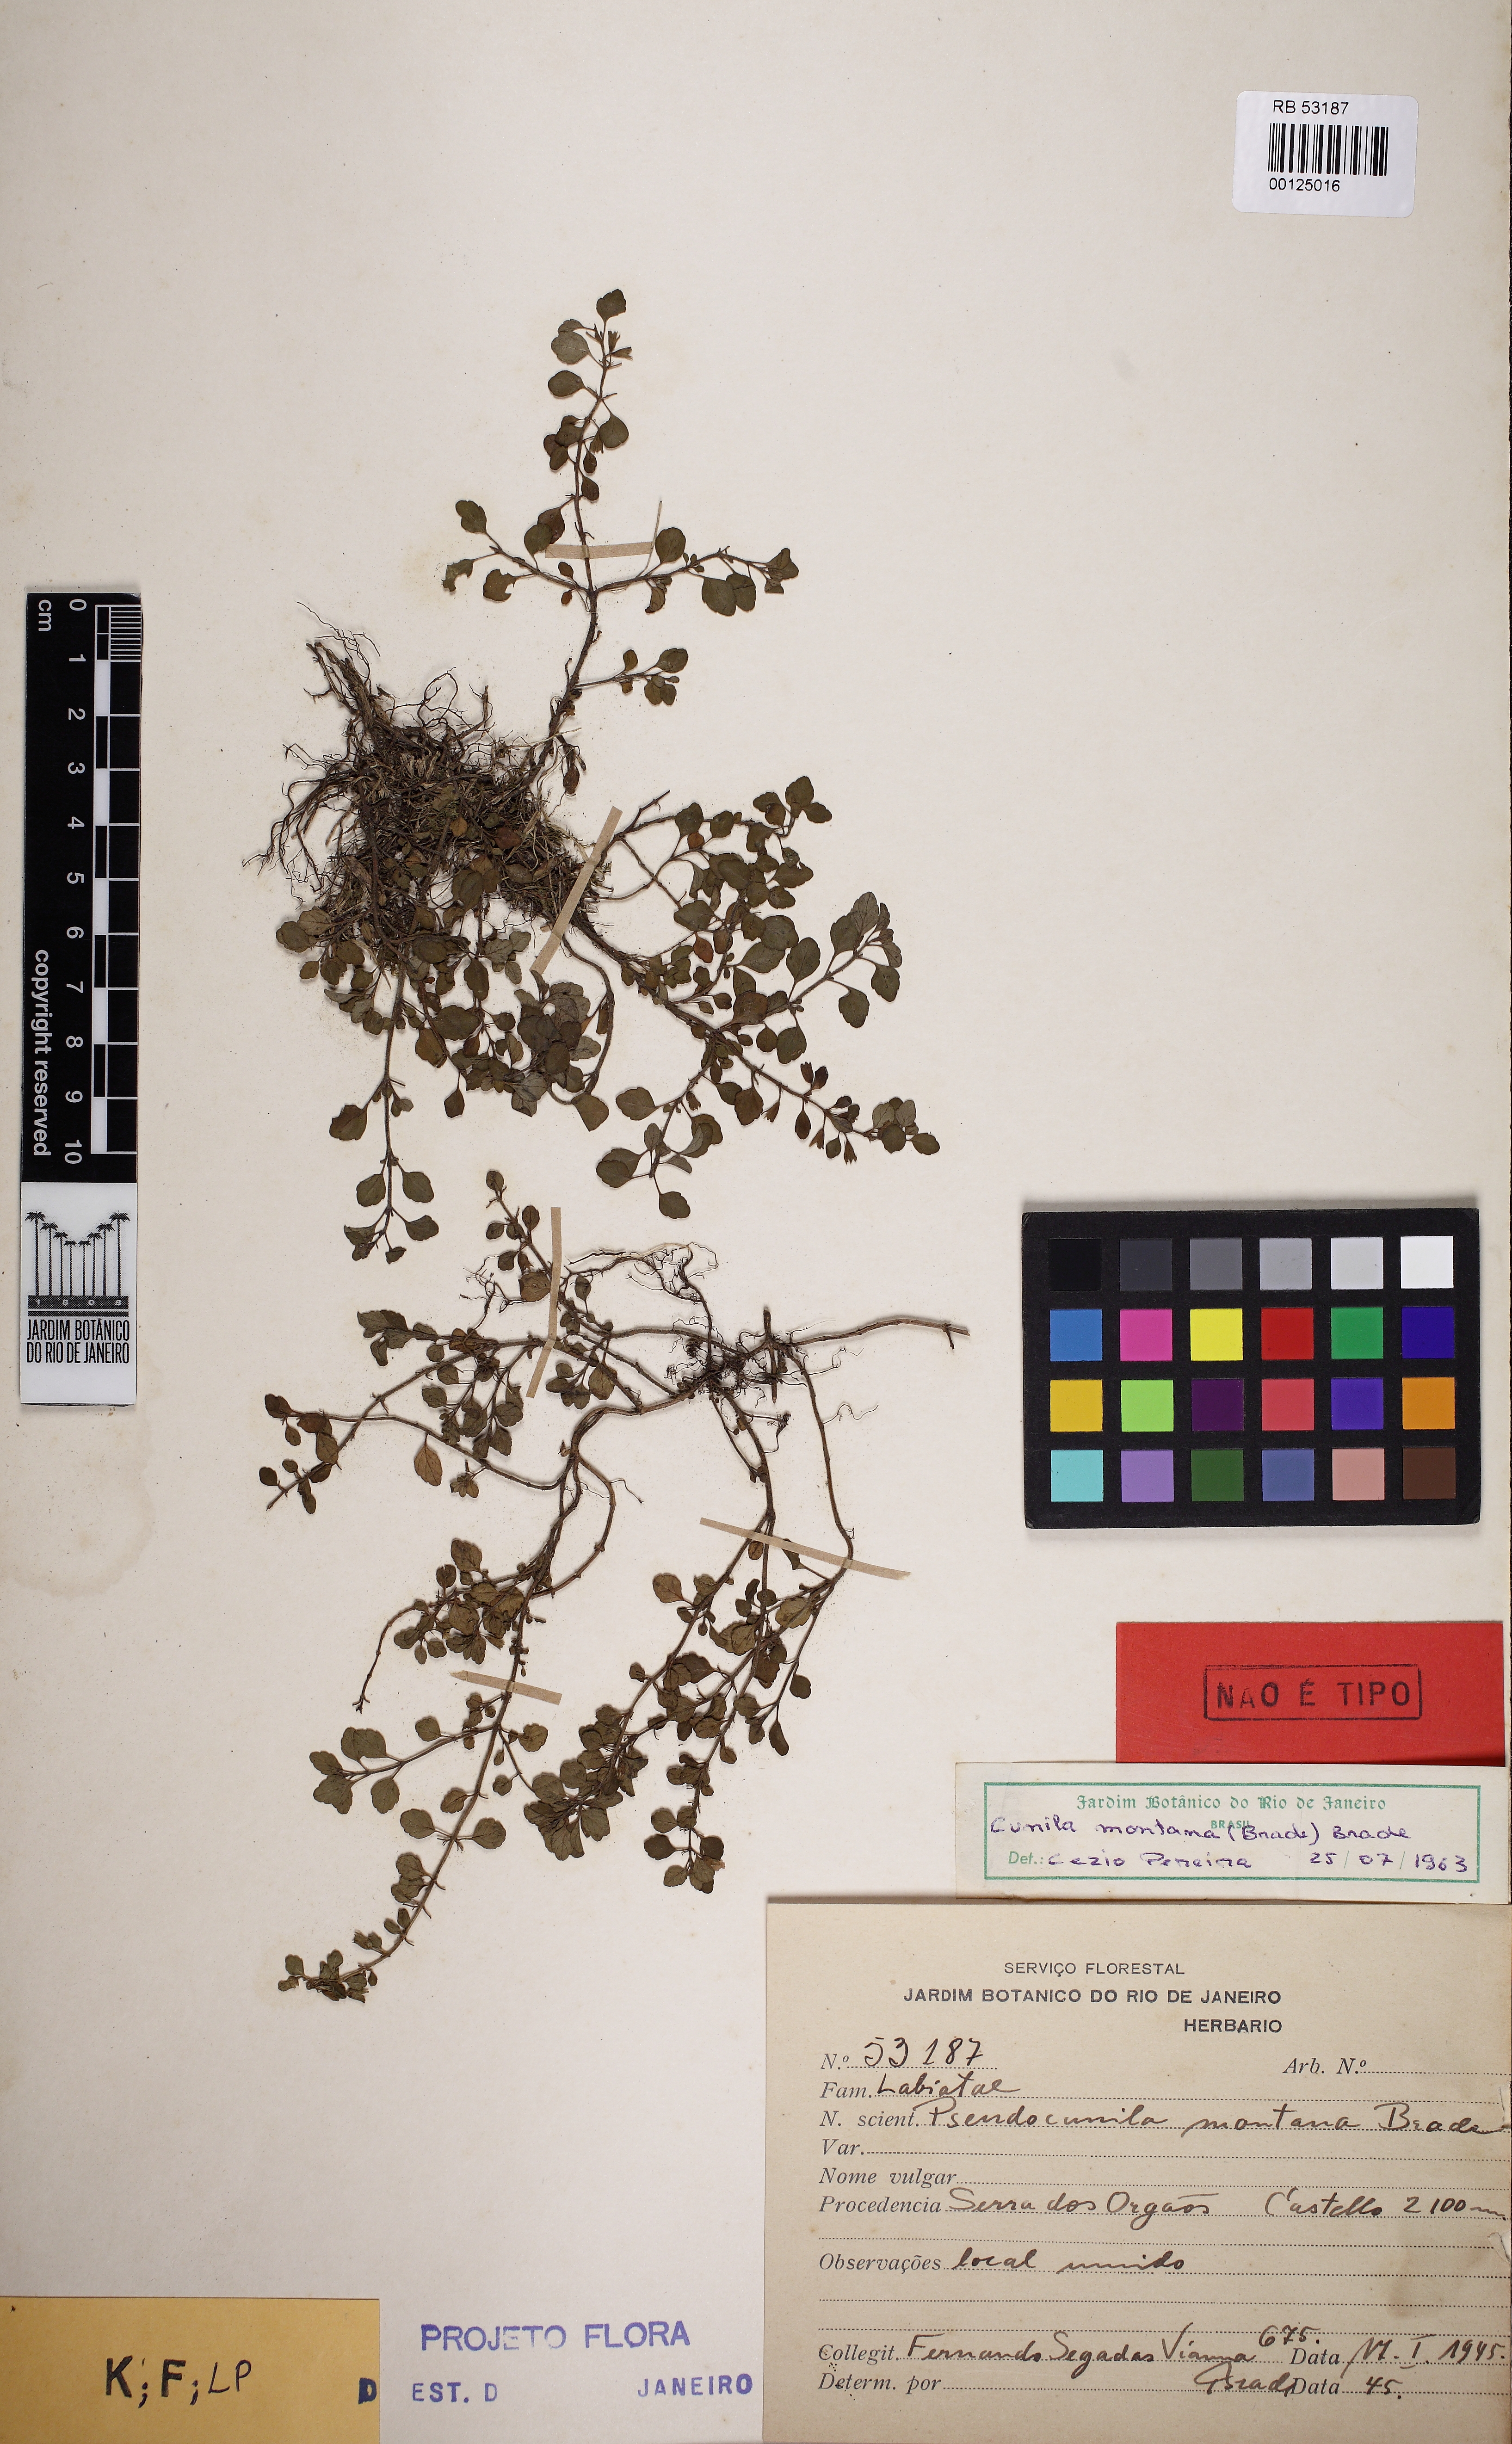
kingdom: Plantae
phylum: Tracheophyta
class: Magnoliopsida
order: Lamiales
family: Lamiaceae
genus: Hedeoma
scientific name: Hedeoma crenata
